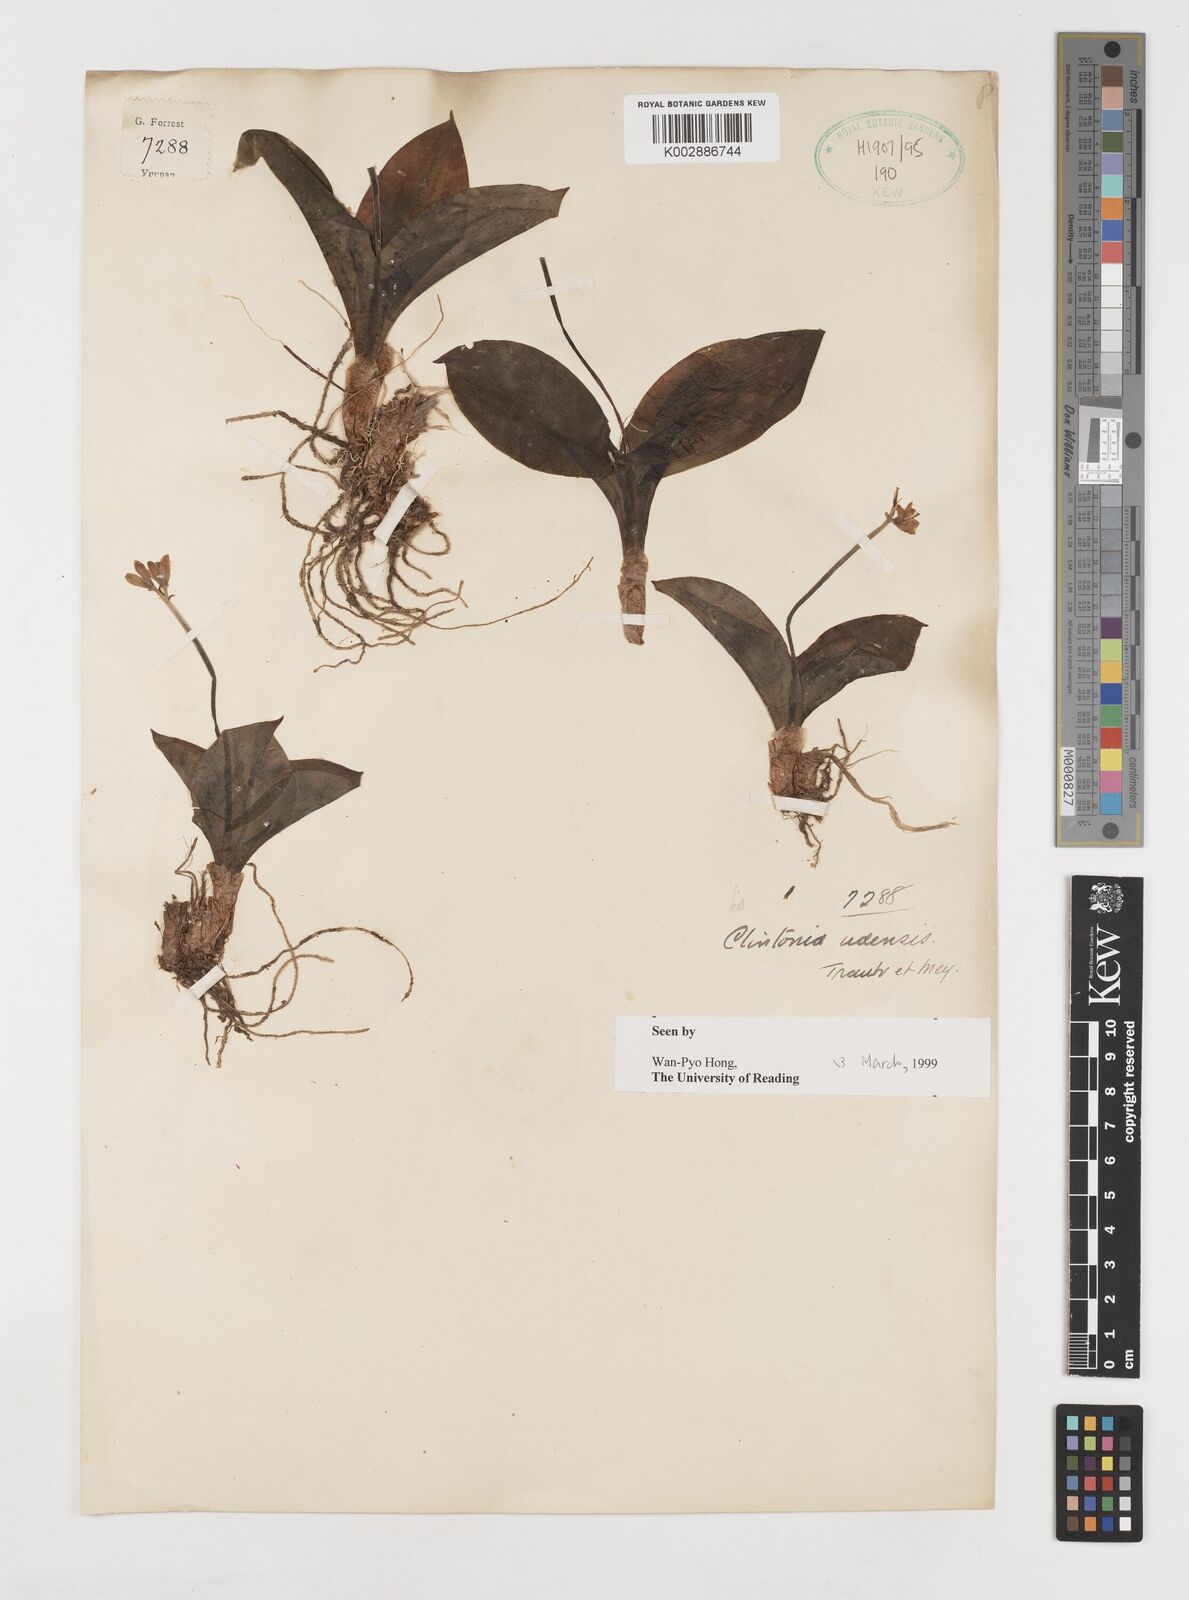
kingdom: Plantae
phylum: Tracheophyta
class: Liliopsida
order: Liliales
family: Liliaceae
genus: Clintonia
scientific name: Clintonia udensis
